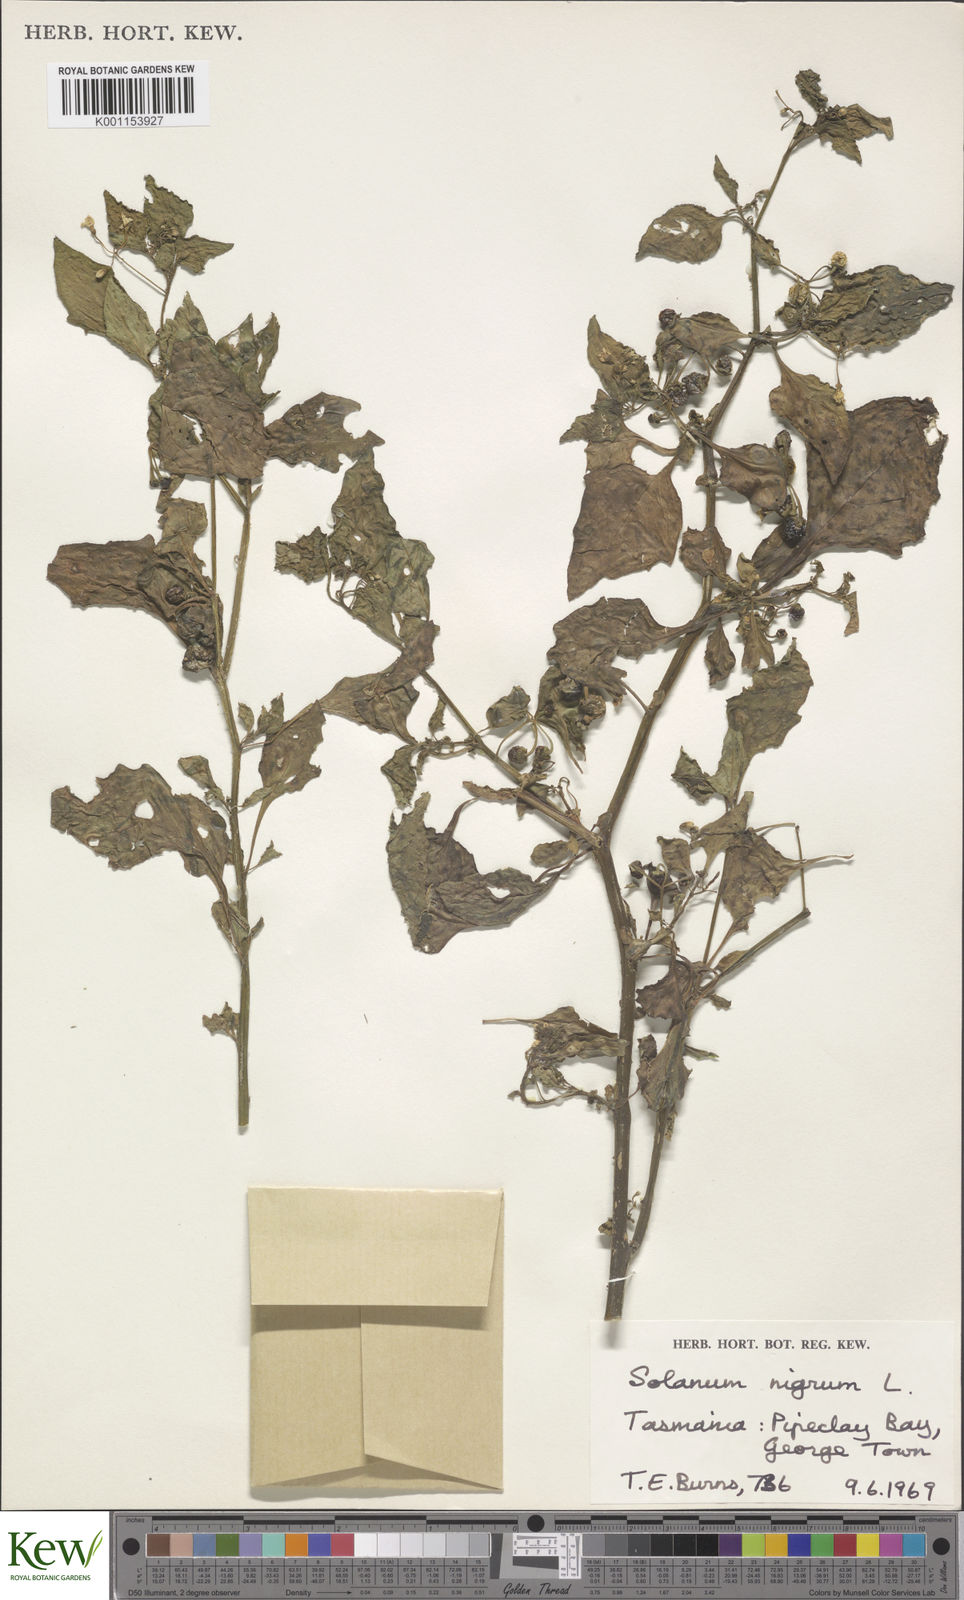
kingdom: Plantae
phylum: Tracheophyta
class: Magnoliopsida
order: Solanales
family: Solanaceae
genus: Solanum
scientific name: Solanum nigrum
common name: Black nightshade
